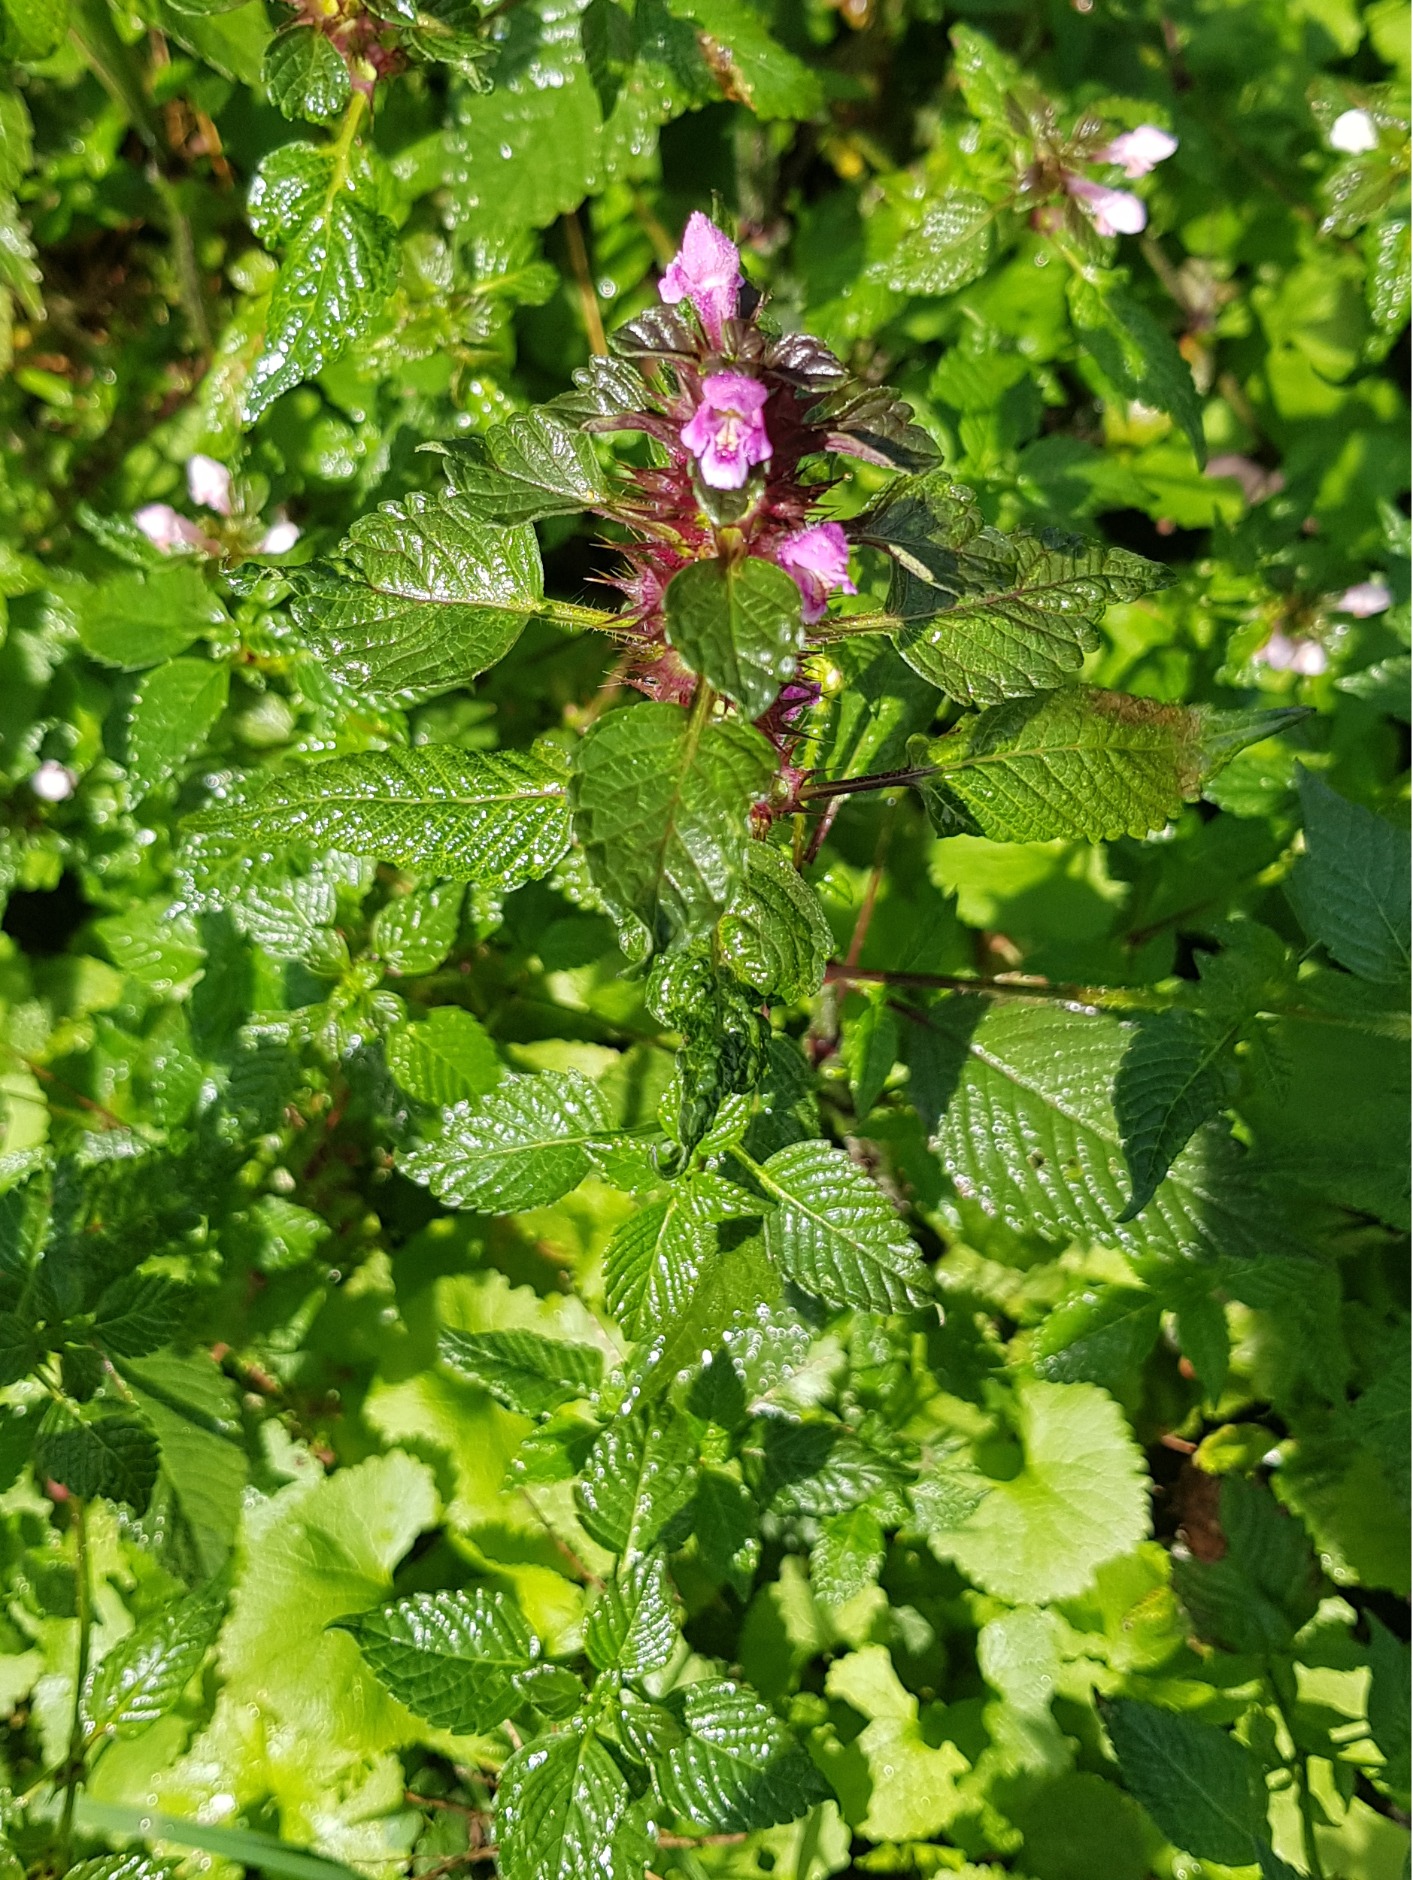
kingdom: Plantae
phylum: Tracheophyta
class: Magnoliopsida
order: Lamiales
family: Lamiaceae
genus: Galeopsis
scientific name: Galeopsis tetrahit
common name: Almindelig hanekro
